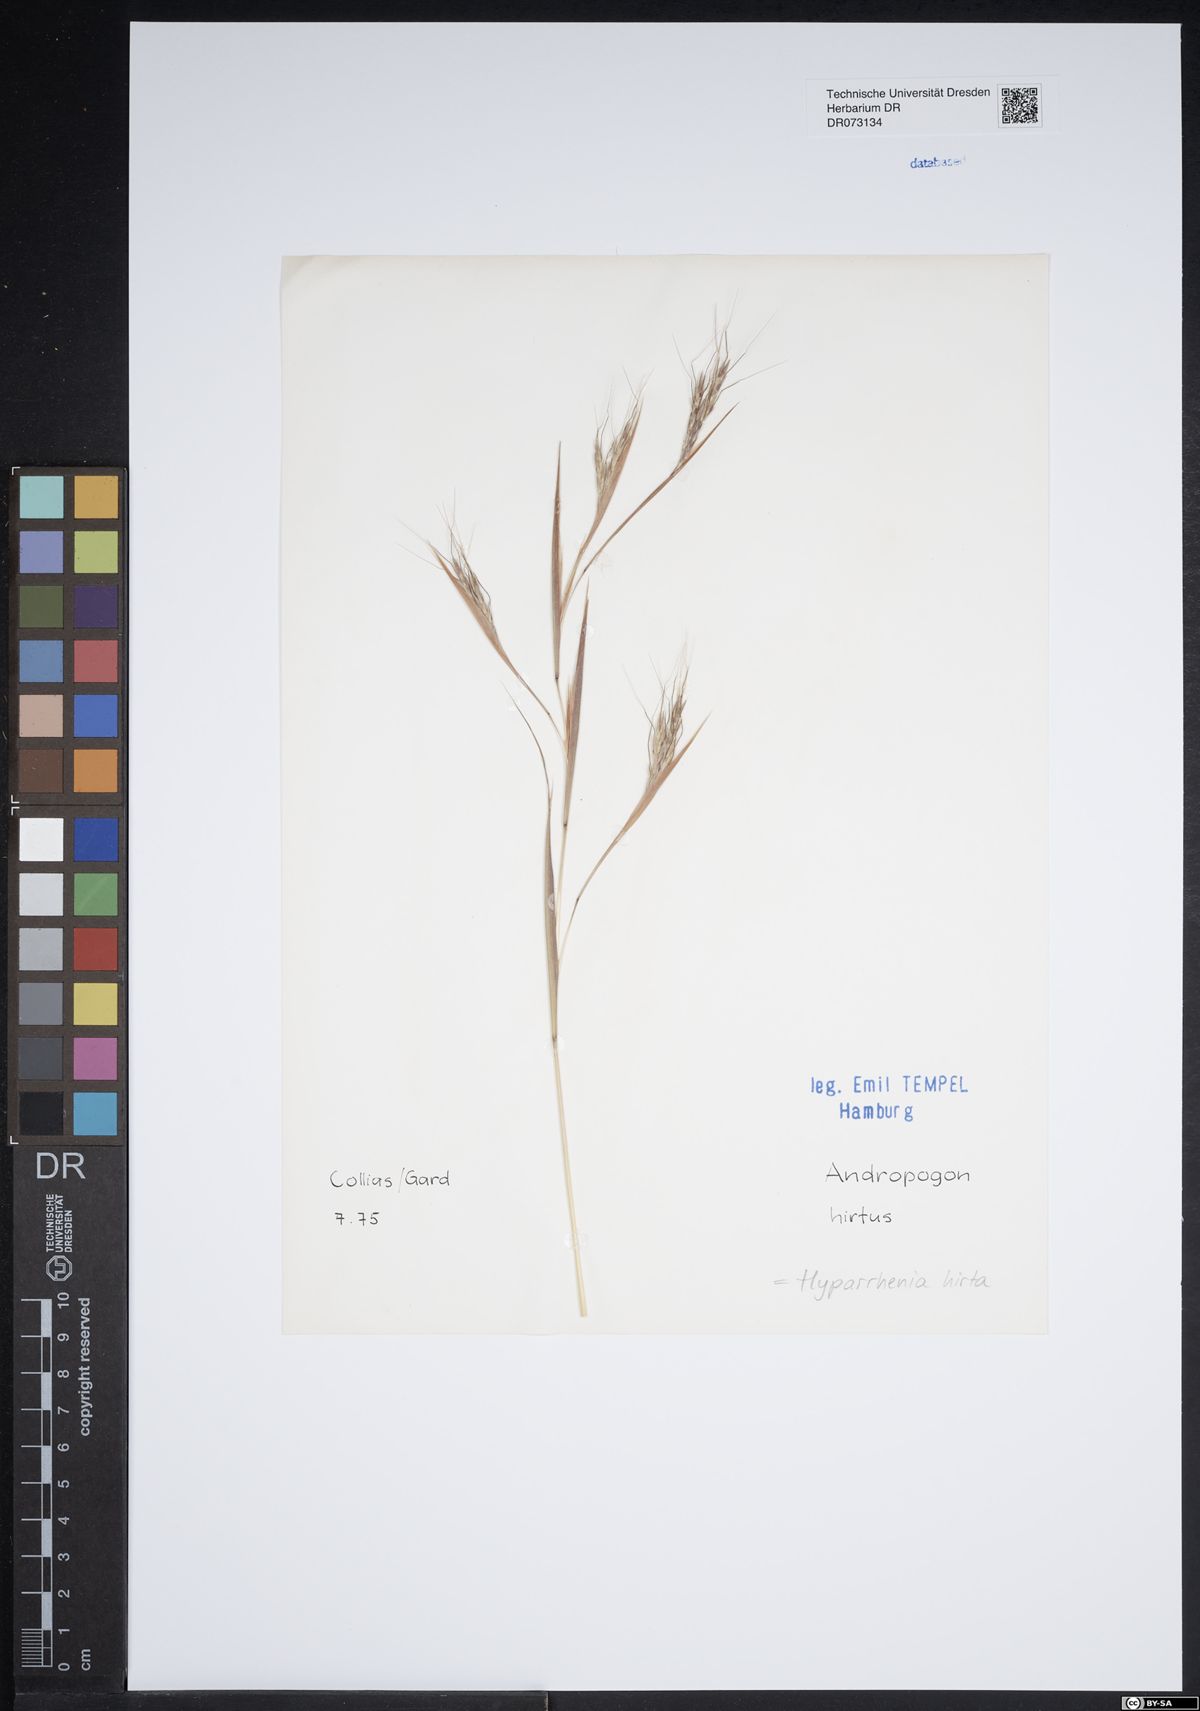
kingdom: Plantae
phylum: Tracheophyta
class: Liliopsida
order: Poales
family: Poaceae
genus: Hyparrhenia
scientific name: Hyparrhenia hirta
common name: Thatching grass
